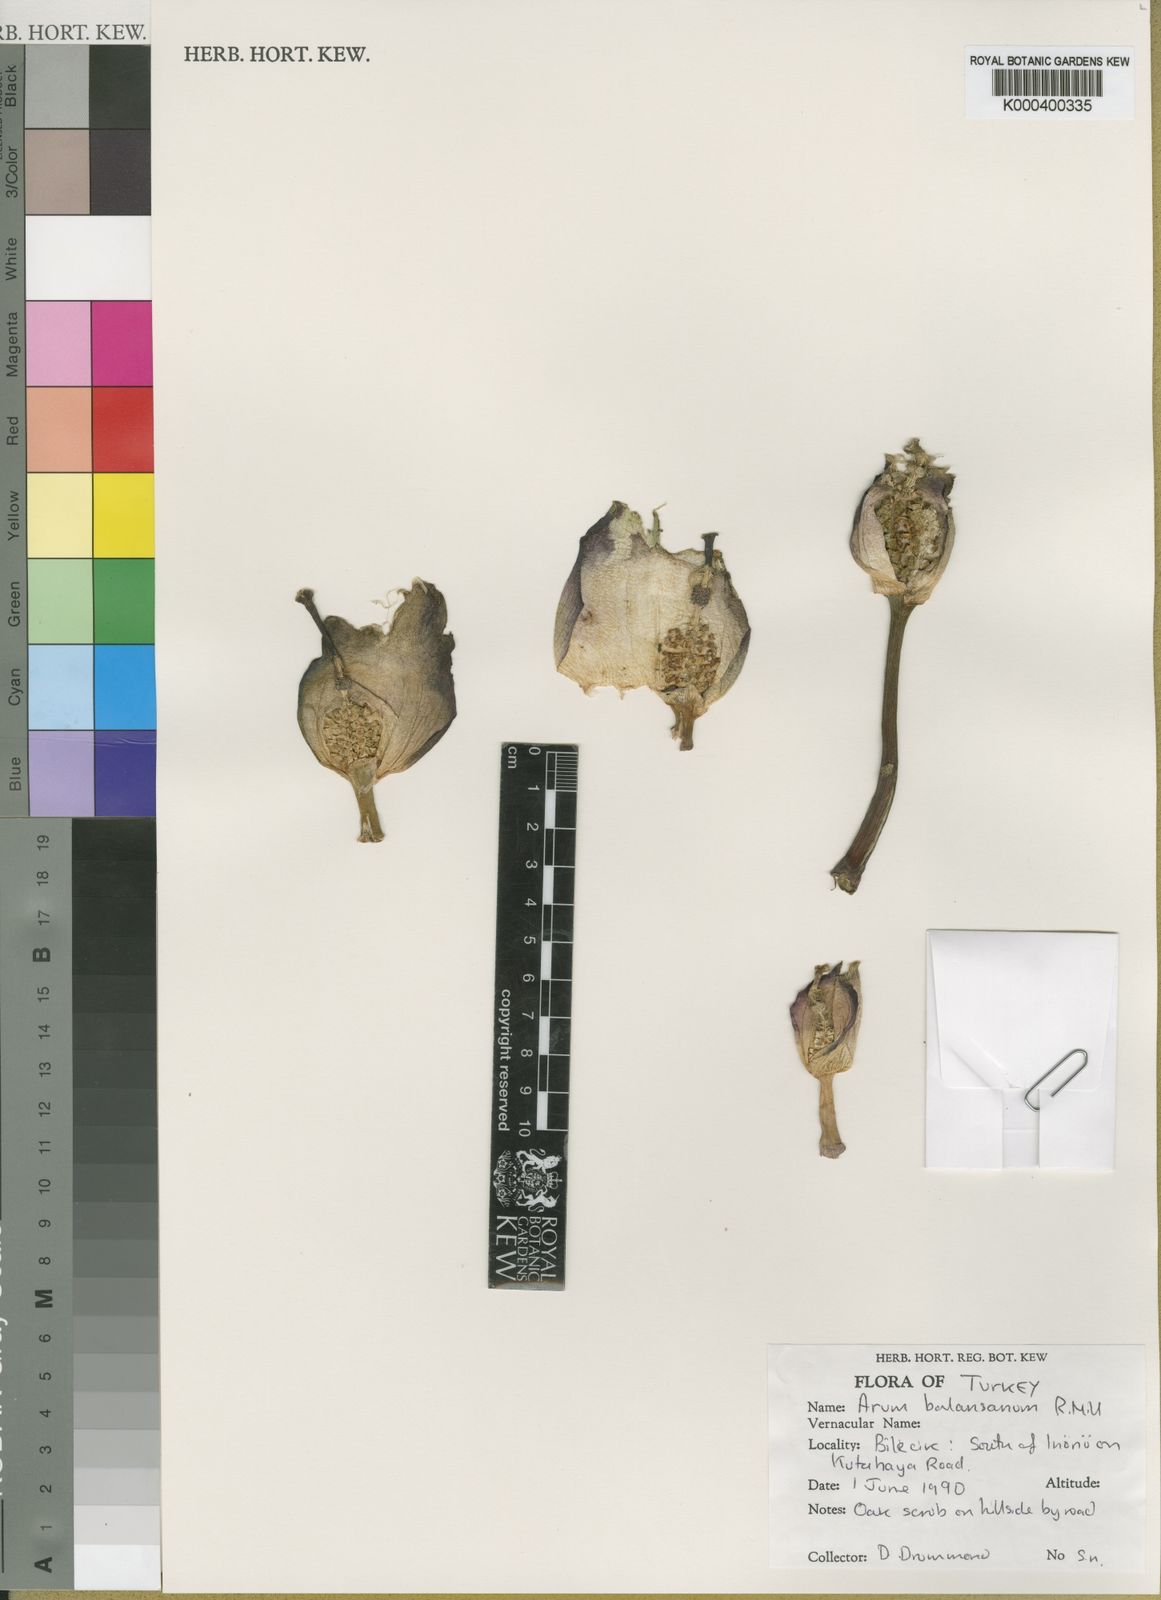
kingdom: Plantae
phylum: Tracheophyta
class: Liliopsida
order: Alismatales
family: Araceae
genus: Arum
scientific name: Arum orientale
